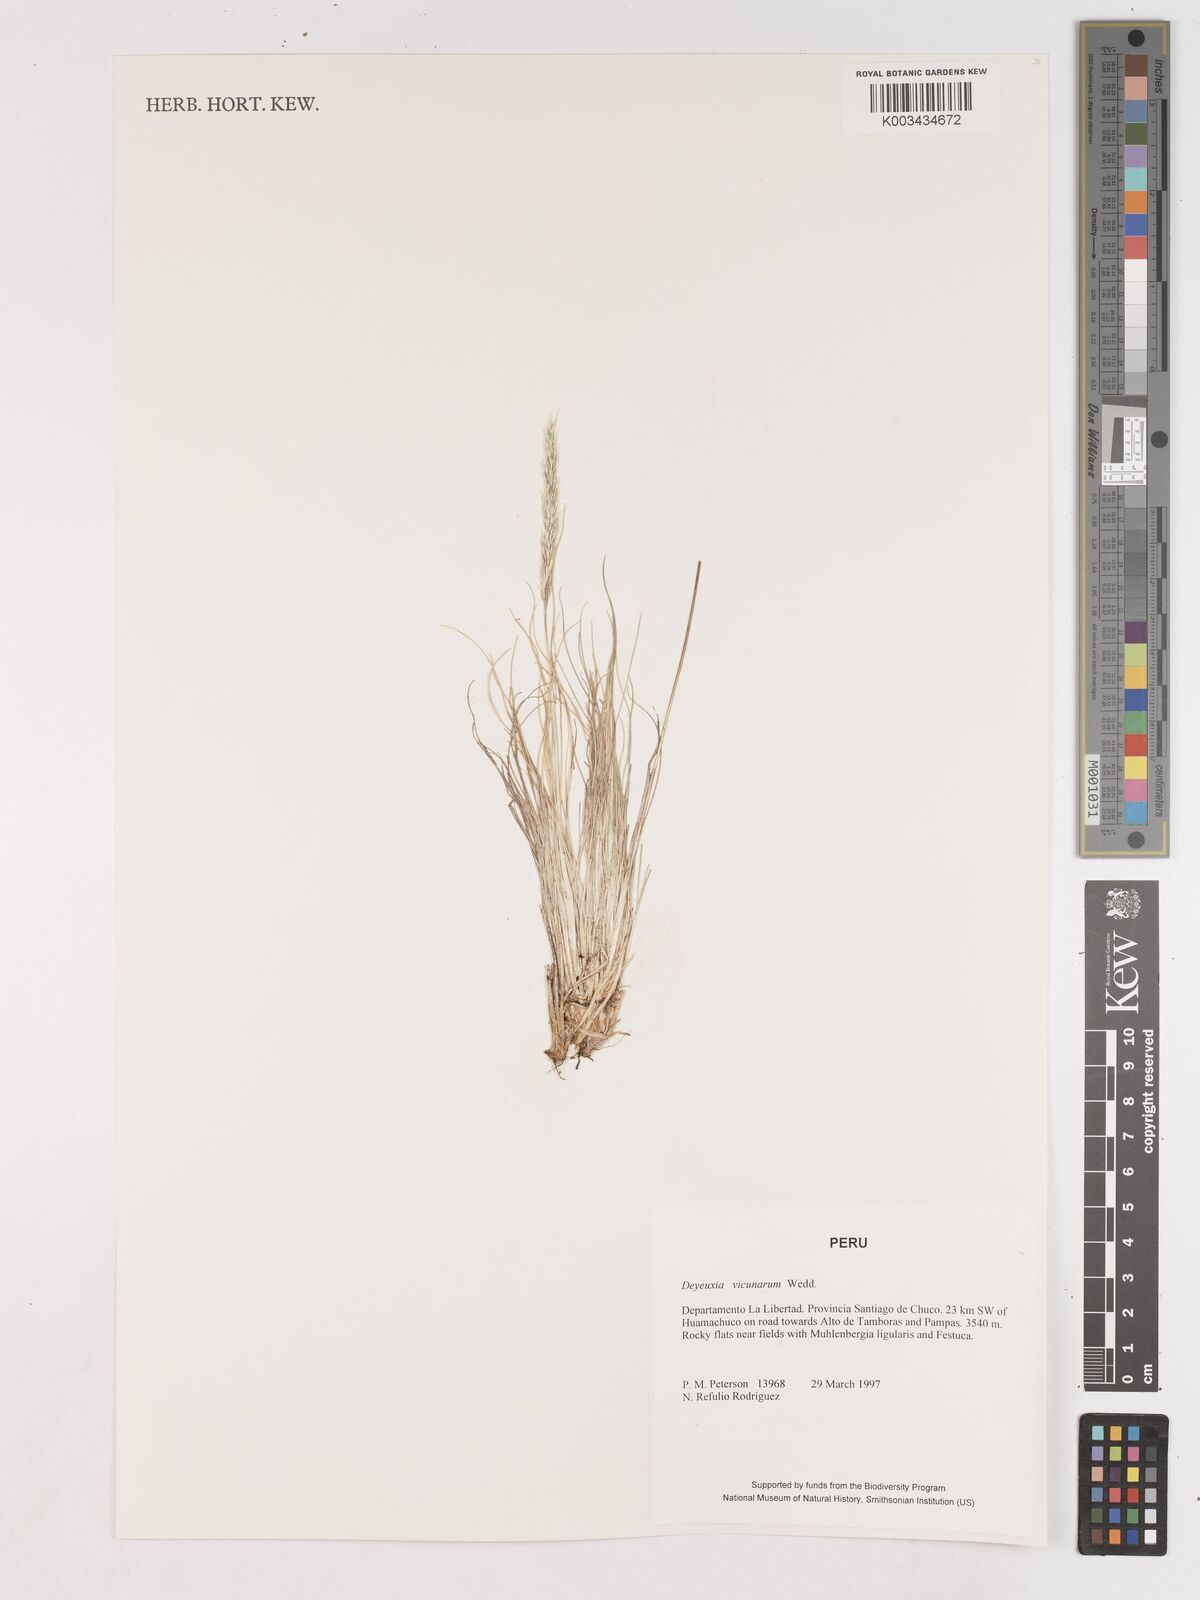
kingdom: Plantae
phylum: Tracheophyta
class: Liliopsida
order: Poales
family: Poaceae
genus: Cinnagrostis
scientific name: Cinnagrostis vicunarum
